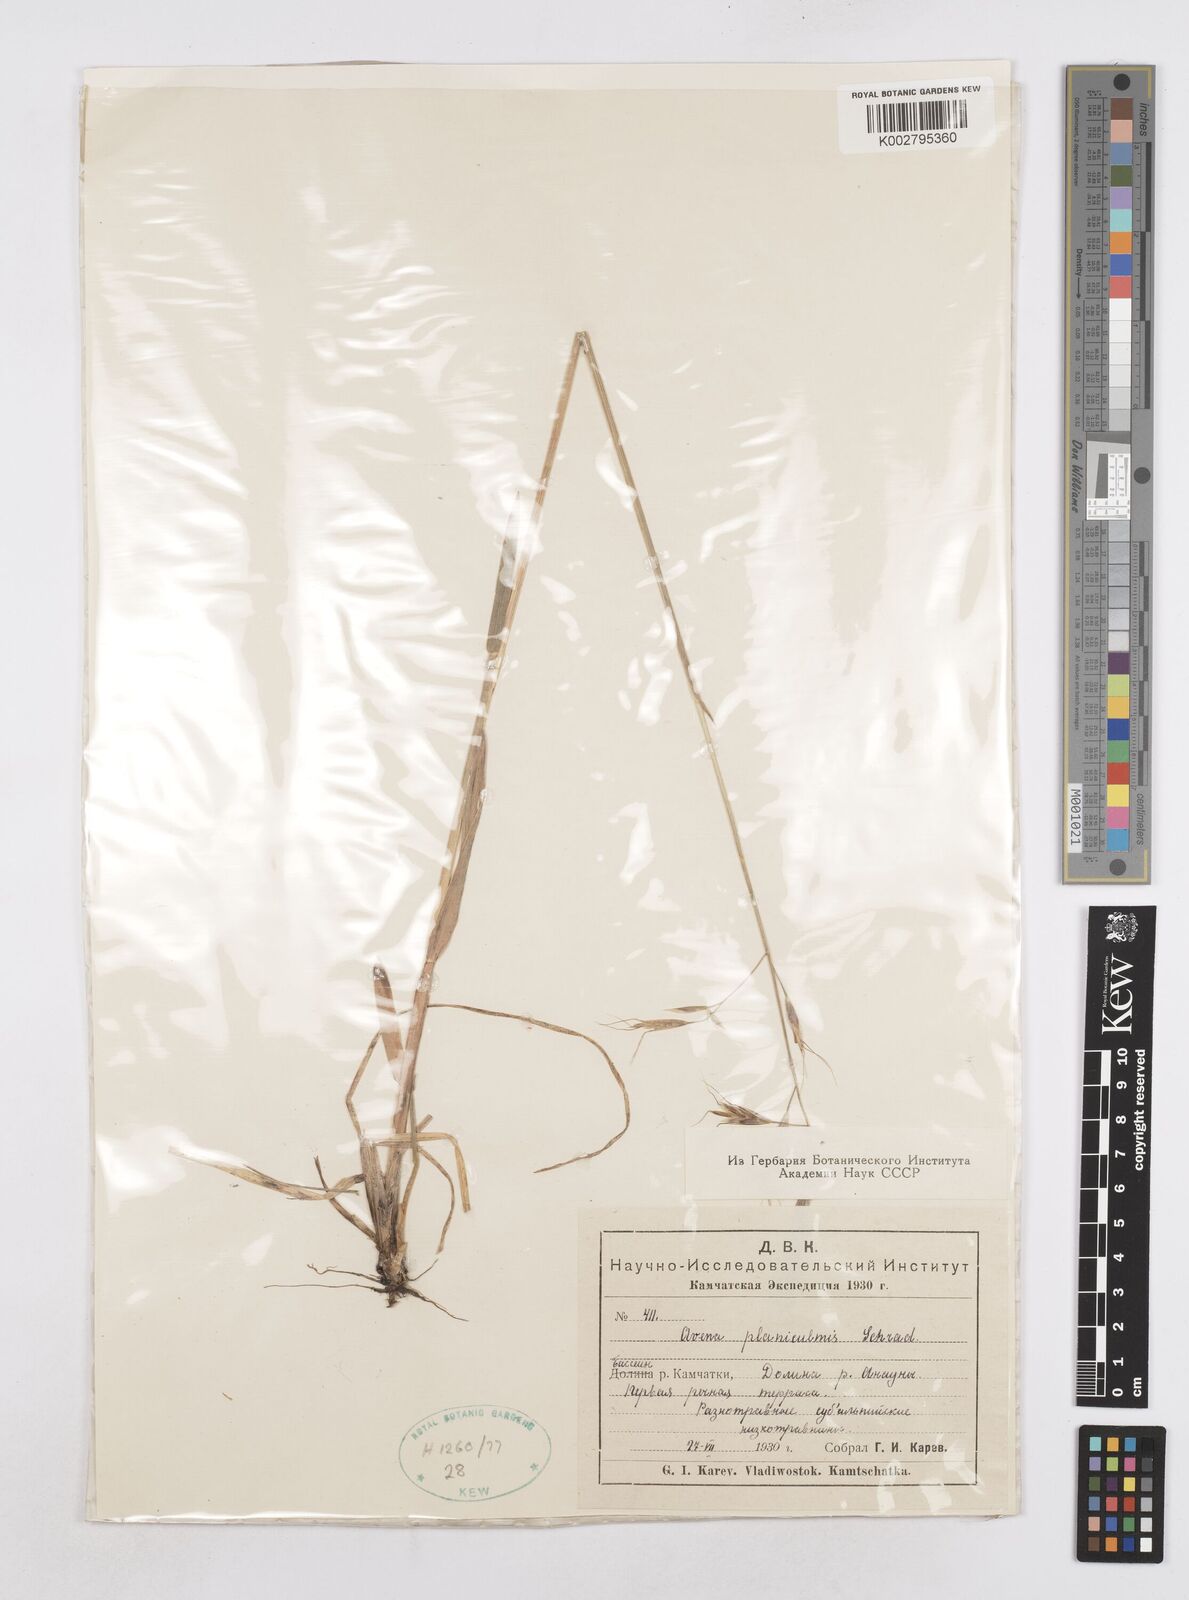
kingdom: Plantae
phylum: Tracheophyta
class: Liliopsida
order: Poales
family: Poaceae
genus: Helictochloa
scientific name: Helictochloa planiculmis
